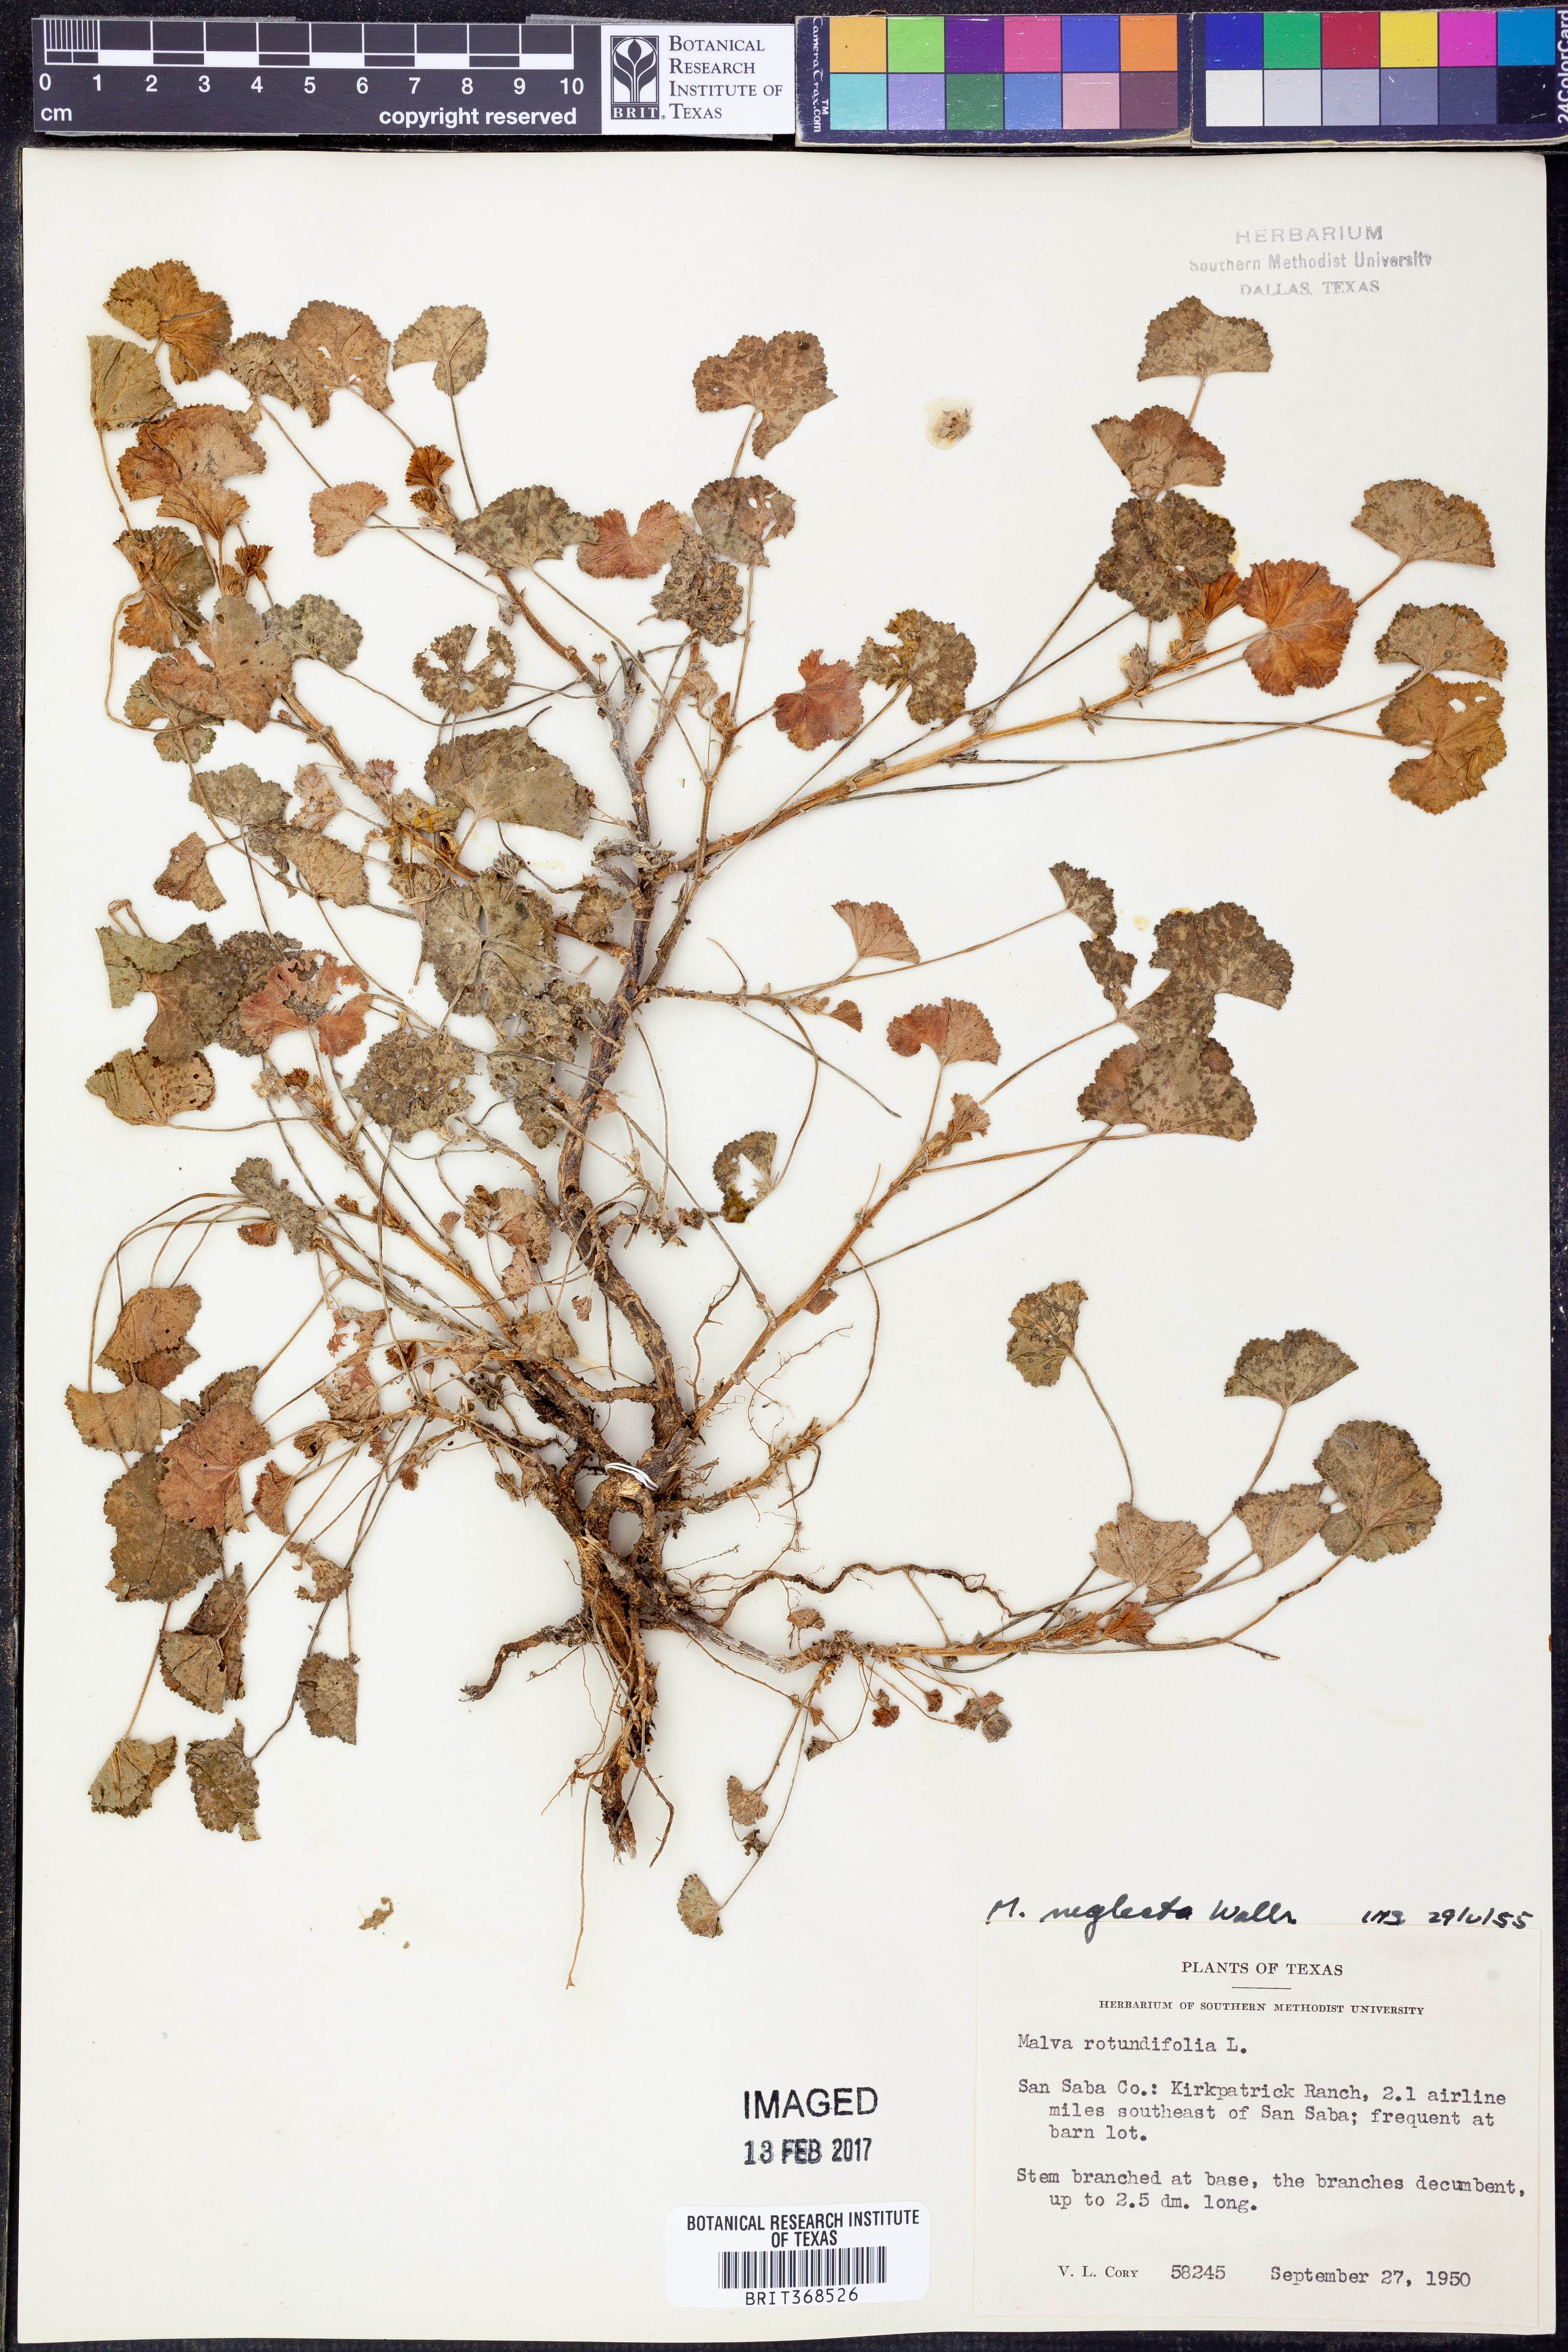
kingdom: Plantae
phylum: Tracheophyta
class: Magnoliopsida
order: Malvales
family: Malvaceae
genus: Malva
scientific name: Malva neglecta
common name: Common mallow
